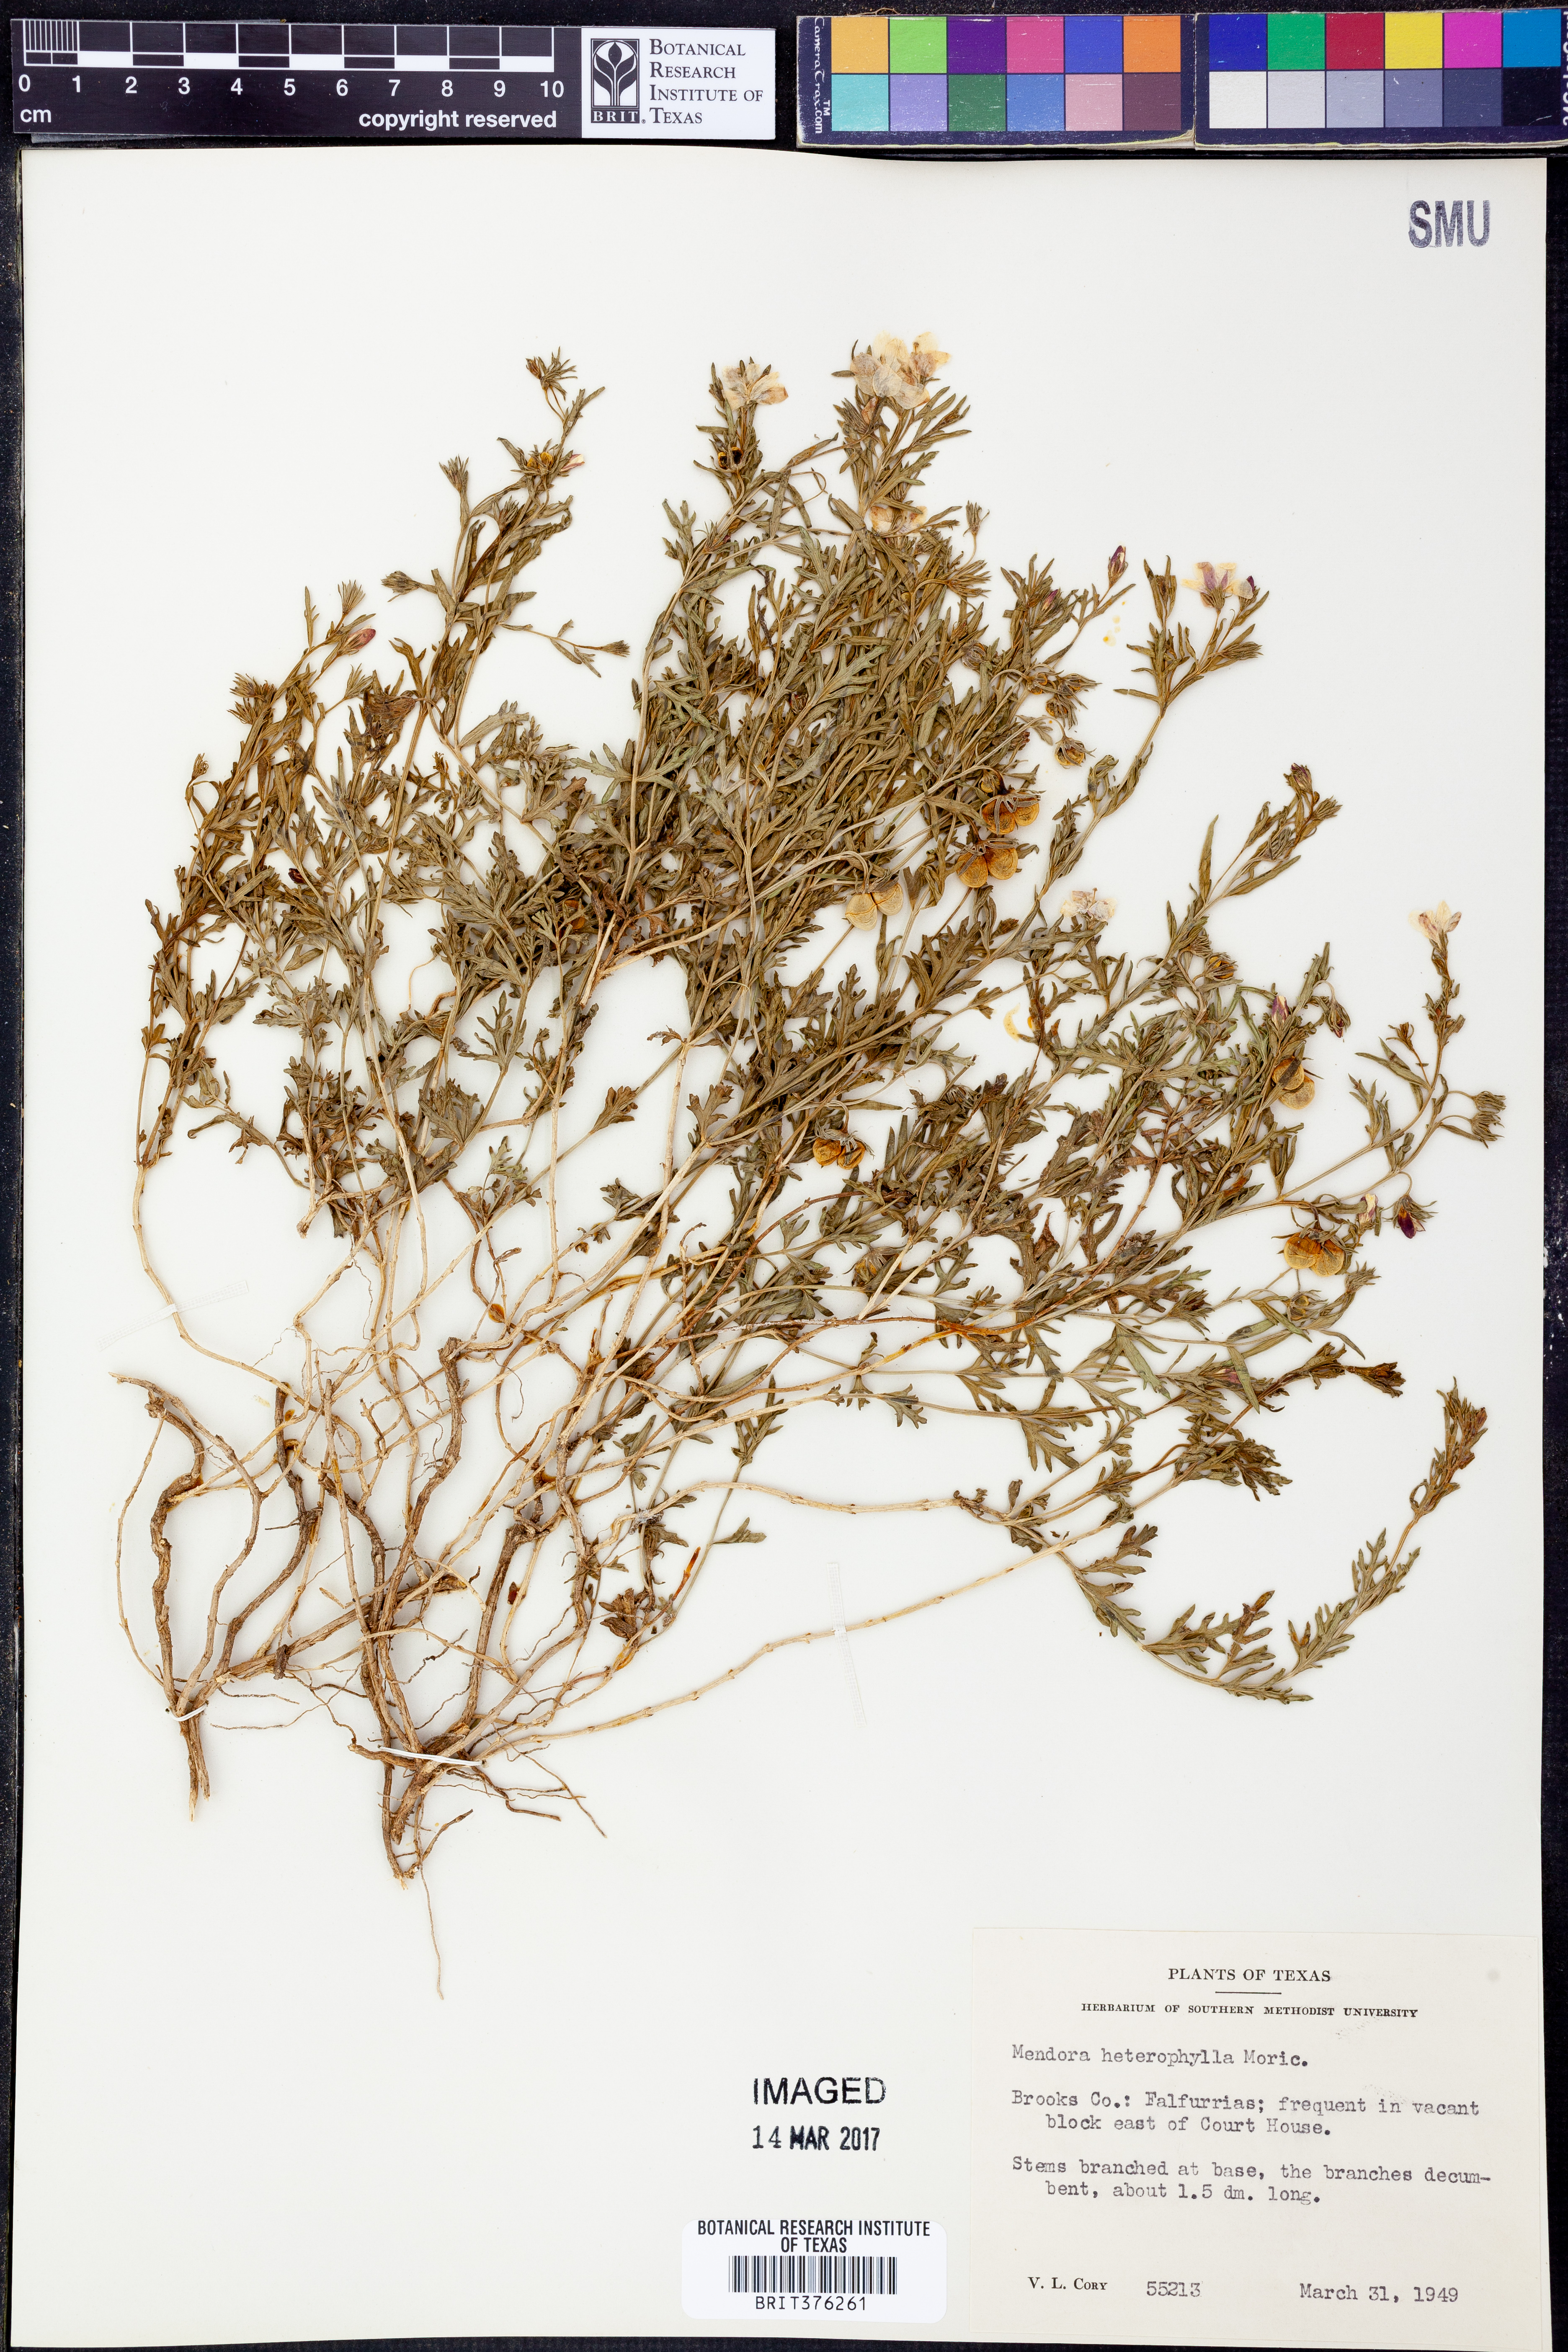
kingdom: Plantae
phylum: Tracheophyta
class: Magnoliopsida
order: Lamiales
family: Oleaceae
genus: Menodora
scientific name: Menodora heterophylla
